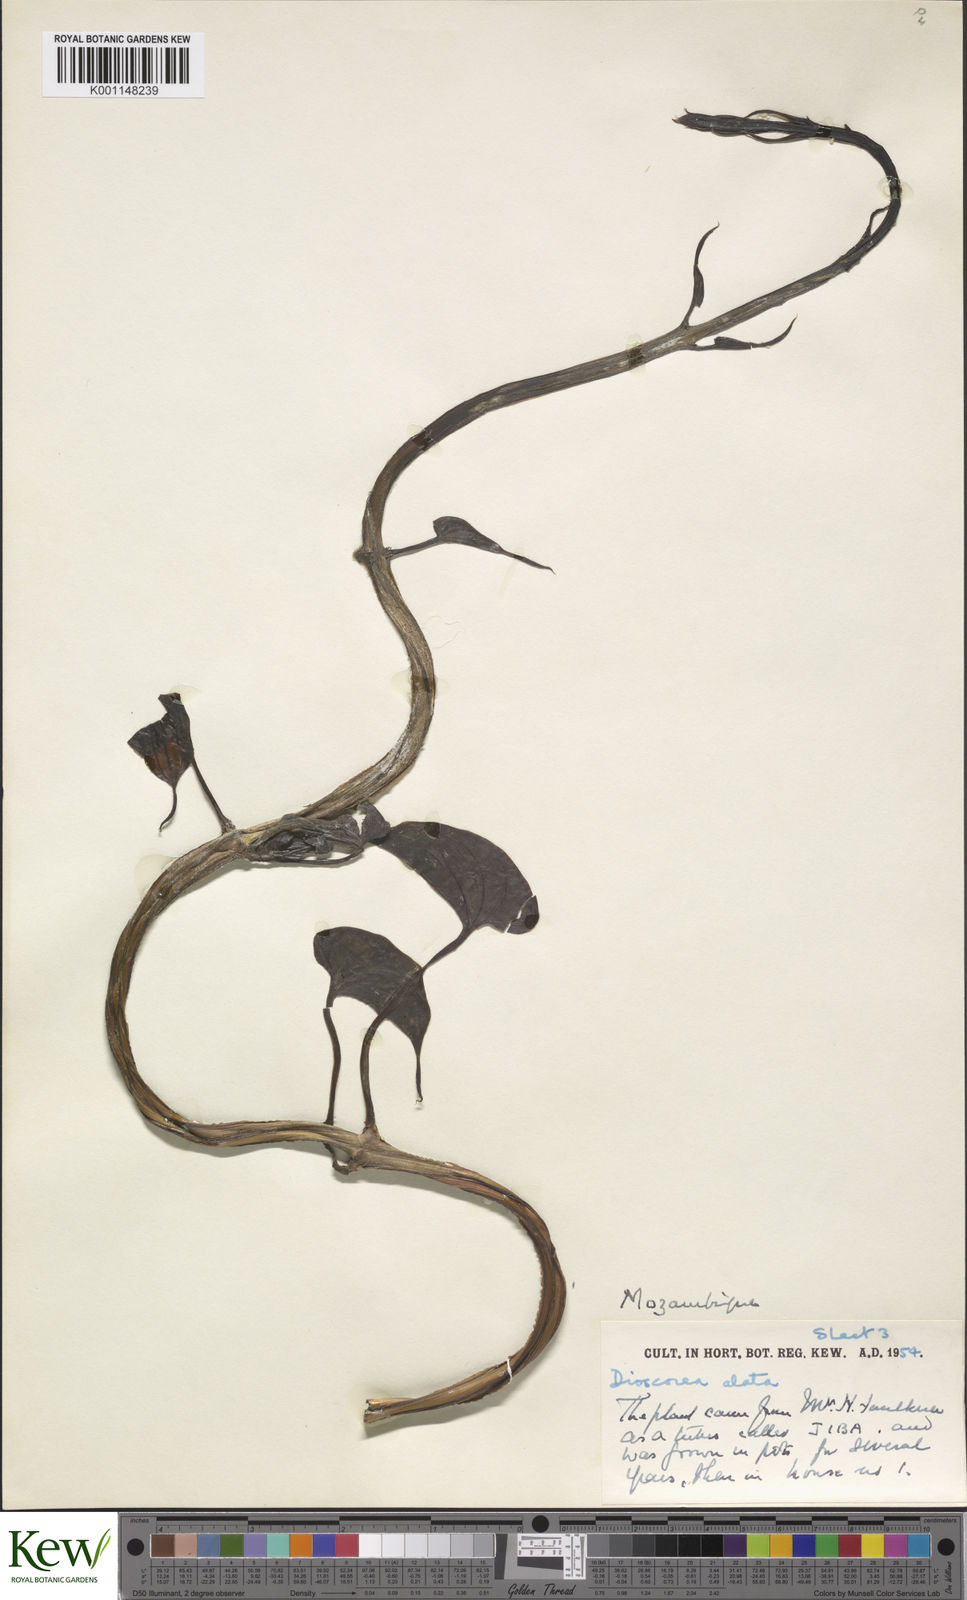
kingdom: Plantae
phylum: Tracheophyta
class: Liliopsida
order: Dioscoreales
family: Dioscoreaceae
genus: Dioscorea
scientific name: Dioscorea alata
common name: Water yam
